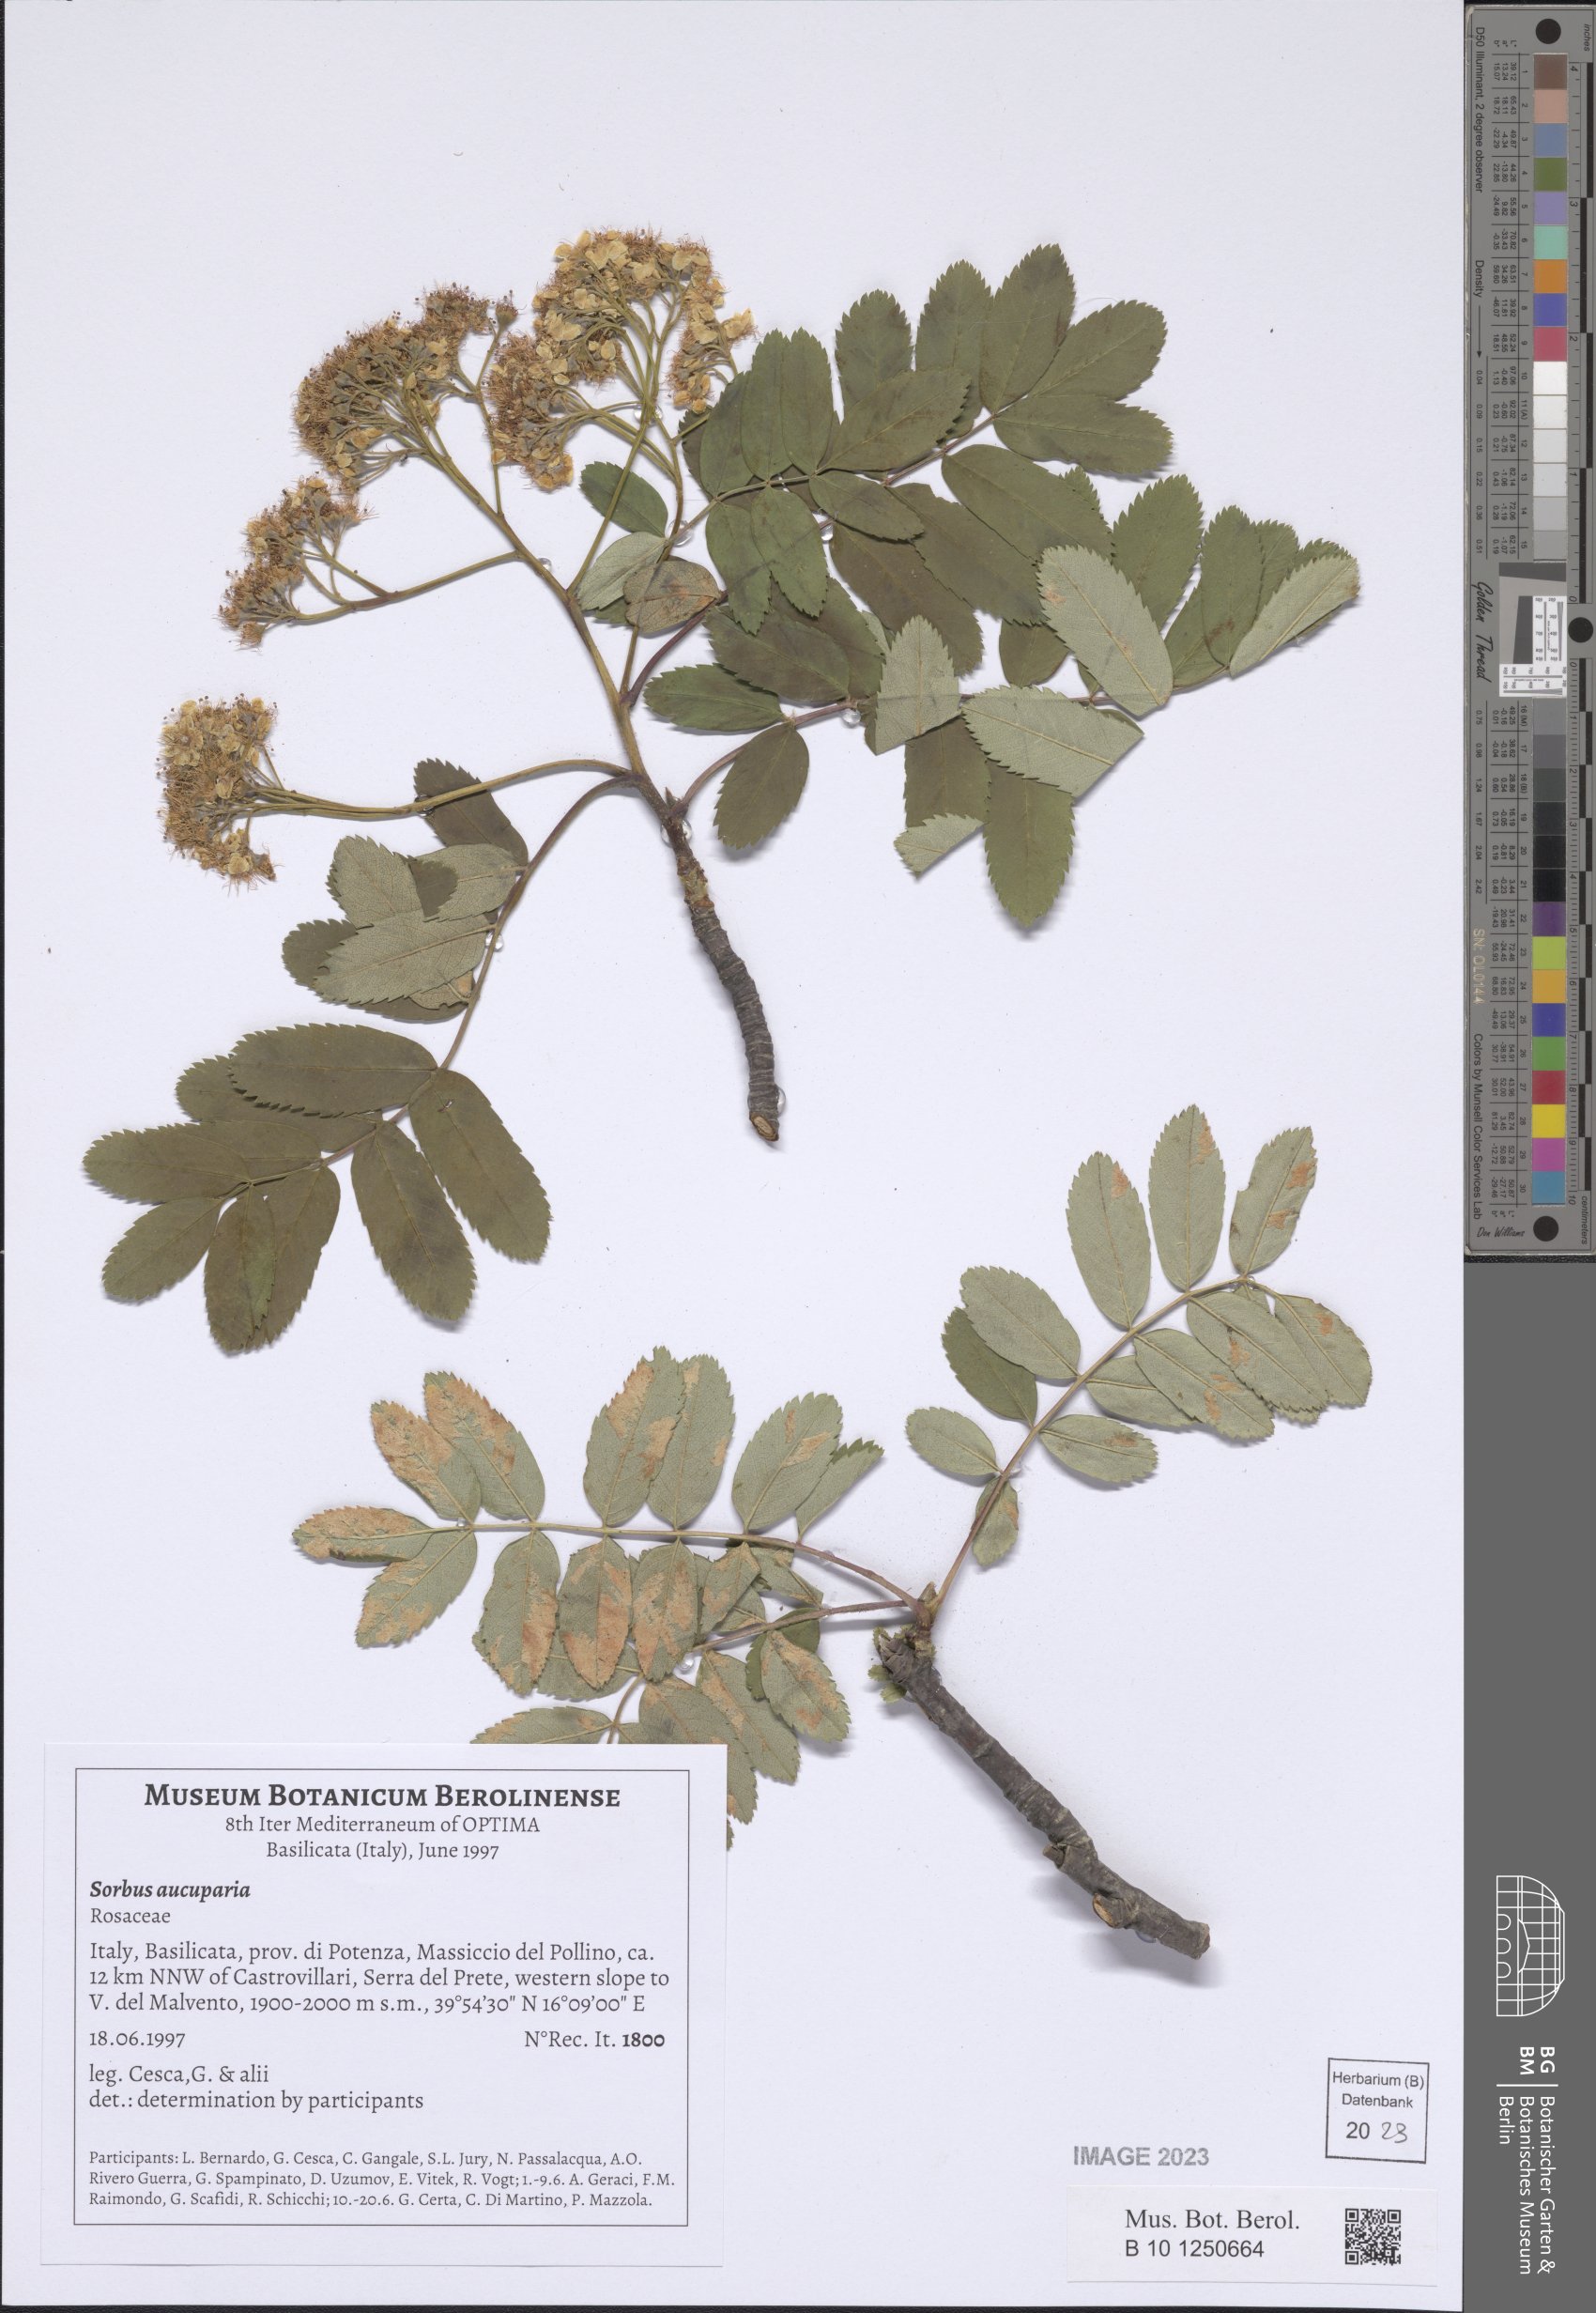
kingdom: Plantae
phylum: Tracheophyta
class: Magnoliopsida
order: Rosales
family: Rosaceae
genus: Sorbus
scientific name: Sorbus aucuparia
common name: Rowan
